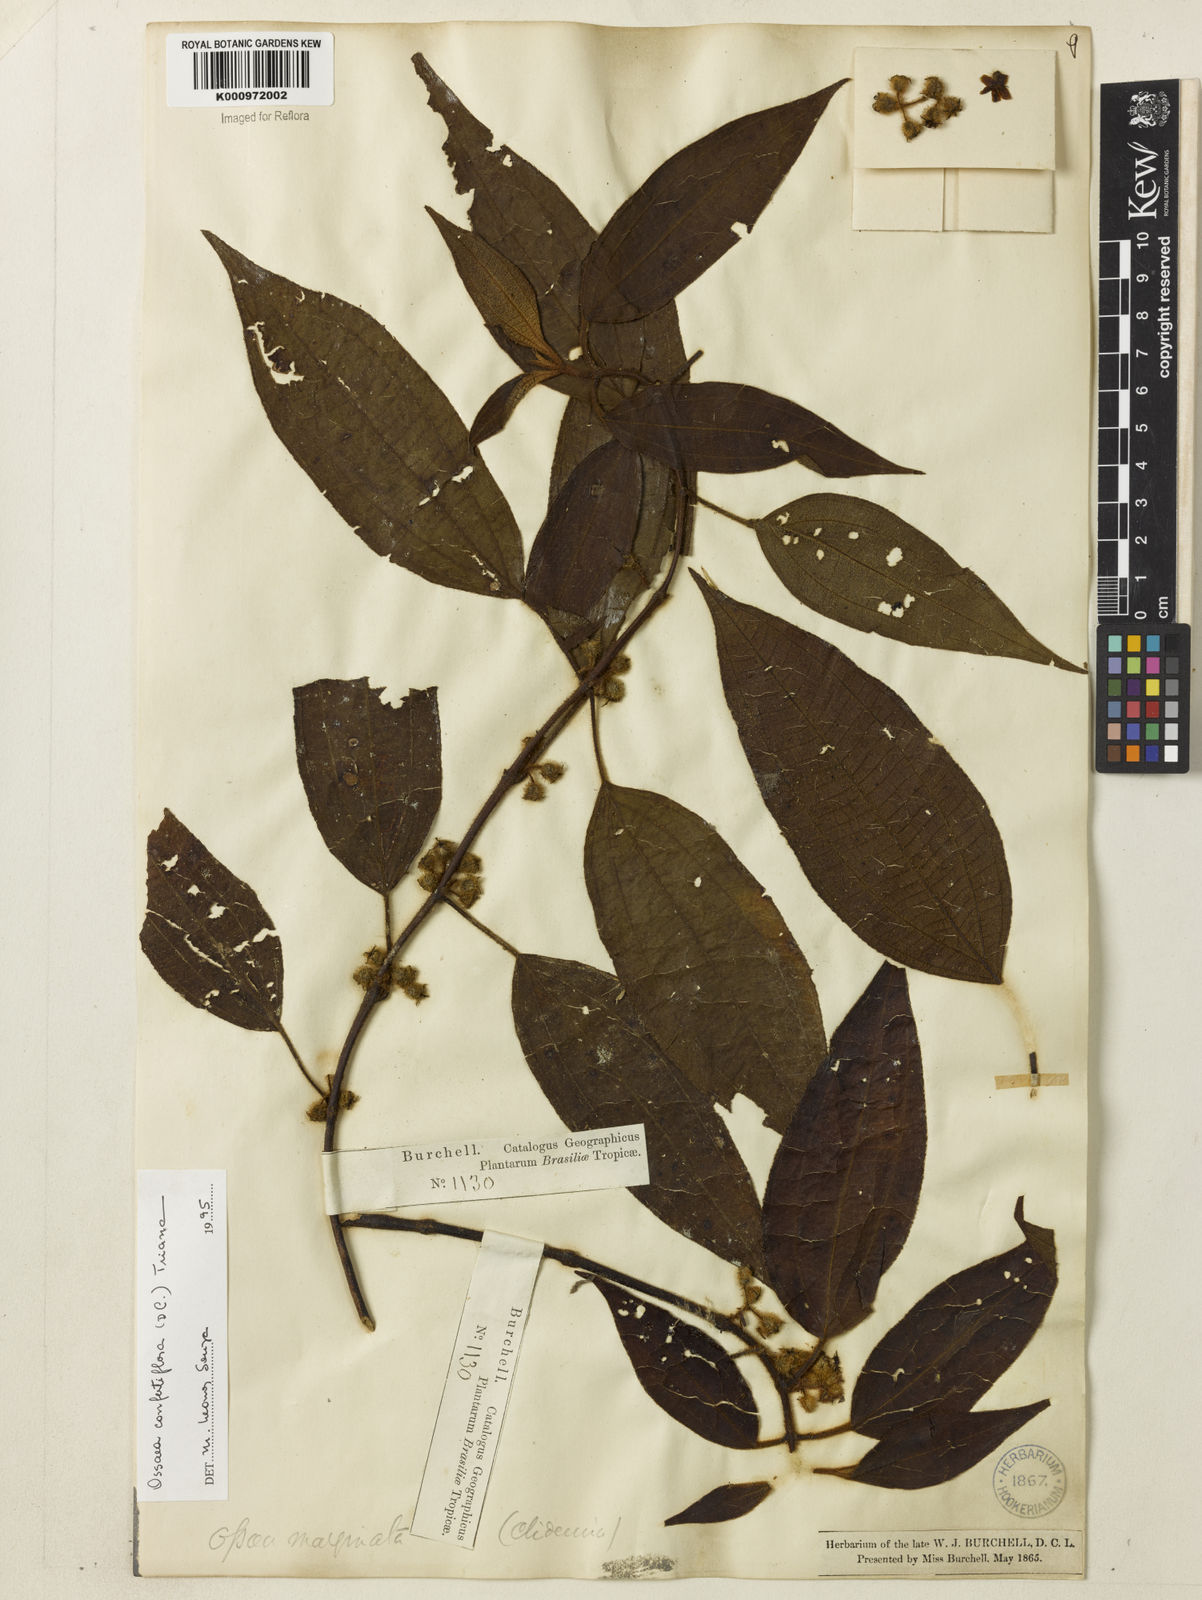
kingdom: Plantae
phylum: Tracheophyta
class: Magnoliopsida
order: Myrtales
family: Melastomataceae
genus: Miconia
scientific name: Miconia rubella
